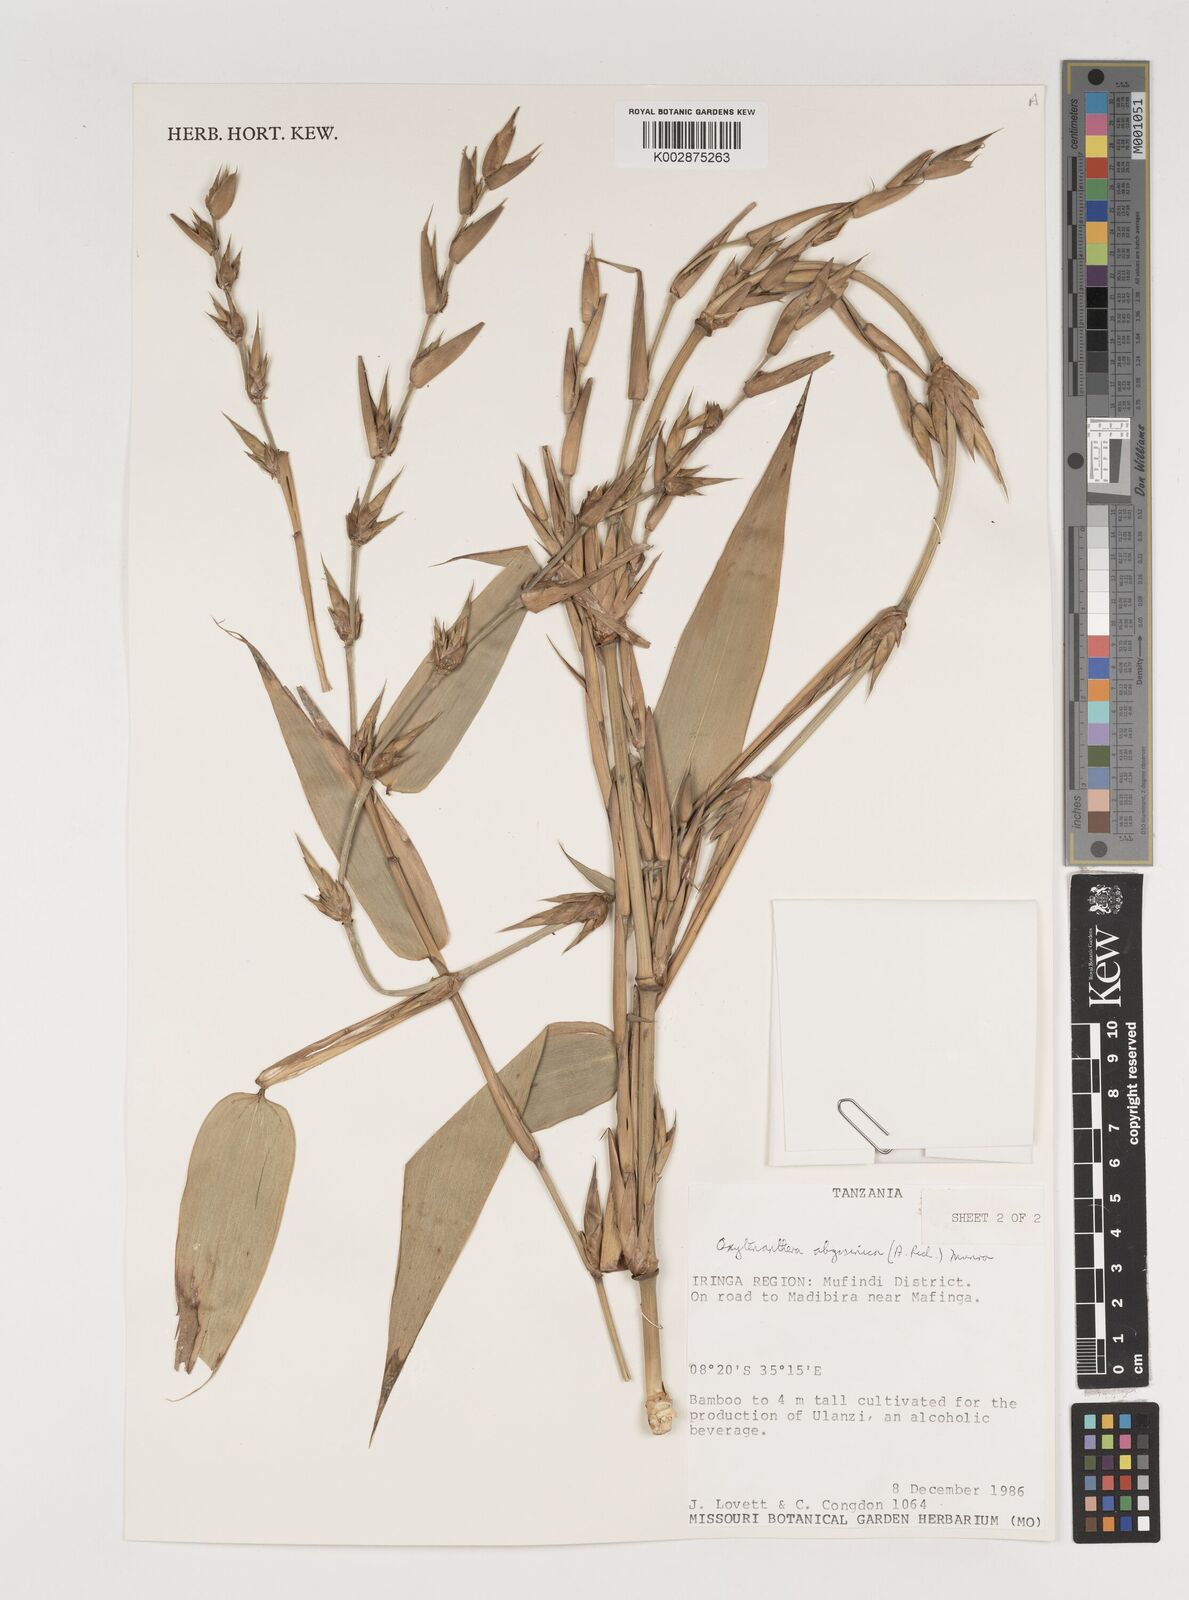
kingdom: Plantae
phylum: Tracheophyta
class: Liliopsida
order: Poales
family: Poaceae
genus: Oxytenanthera
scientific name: Oxytenanthera
